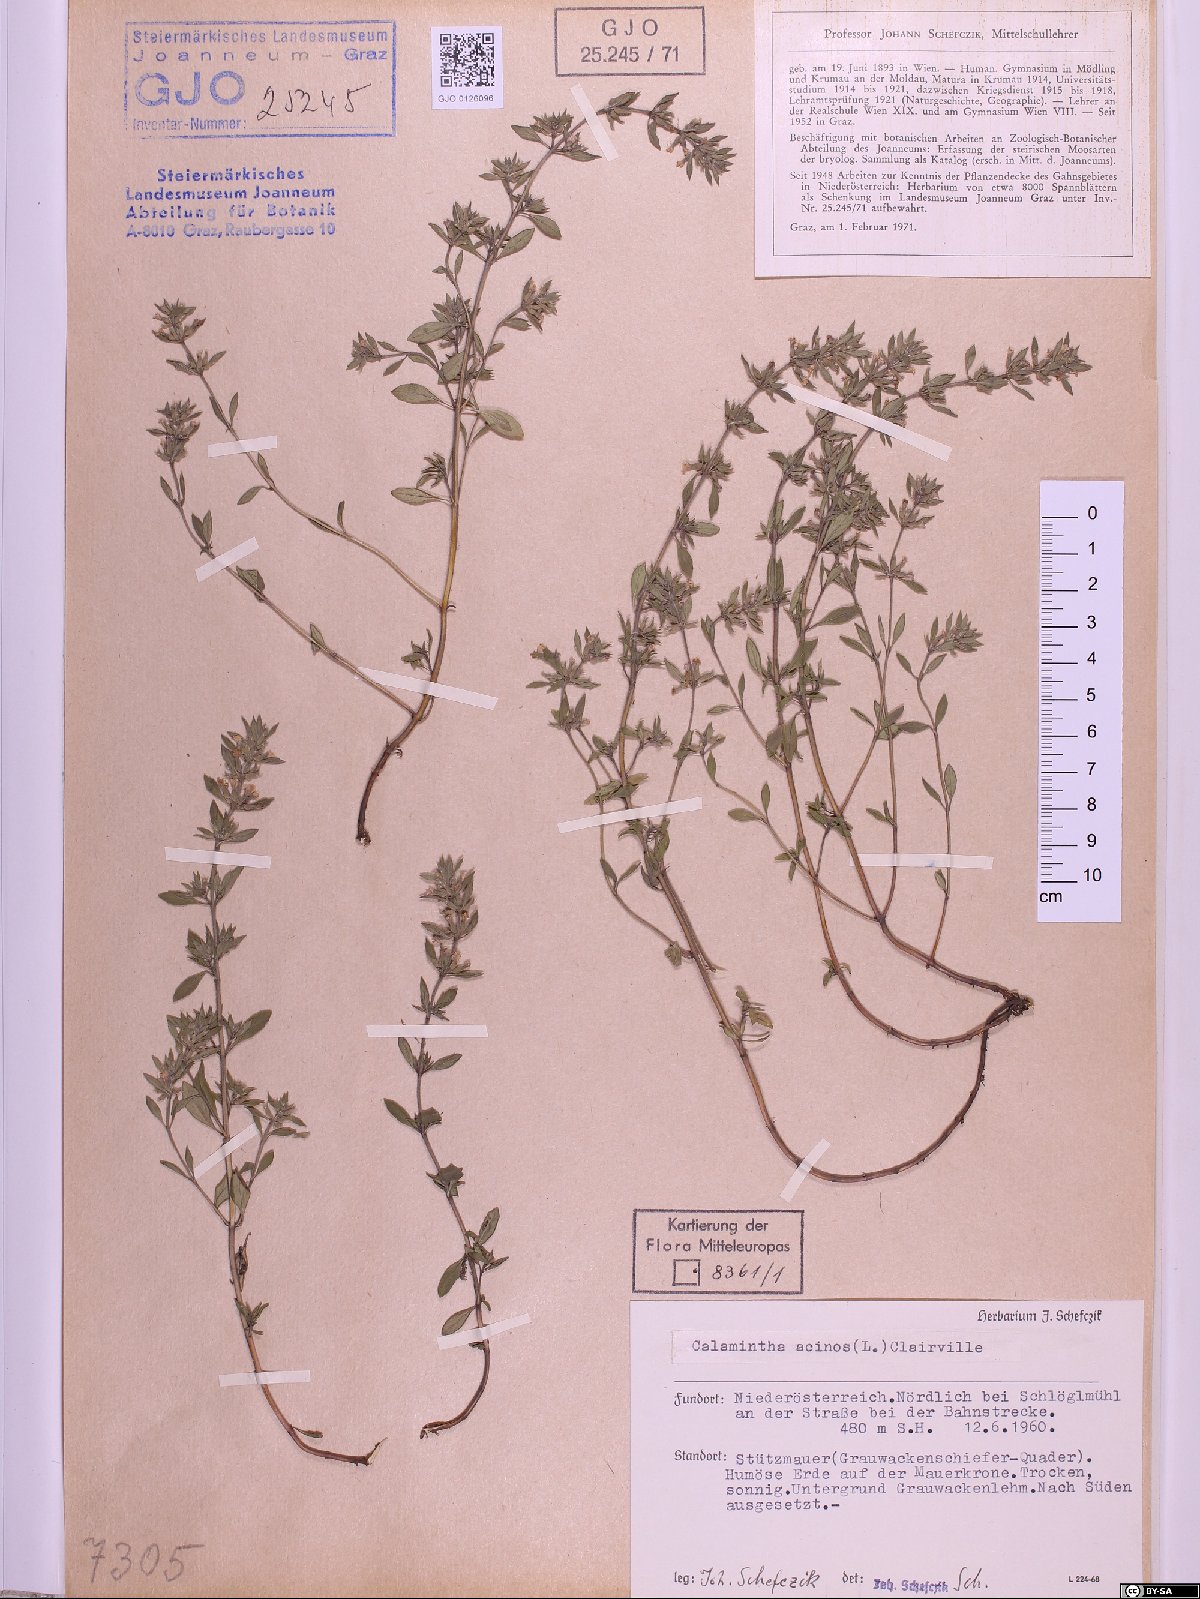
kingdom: Plantae
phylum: Tracheophyta
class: Magnoliopsida
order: Lamiales
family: Lamiaceae
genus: Clinopodium
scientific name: Clinopodium acinos
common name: Basil thyme
